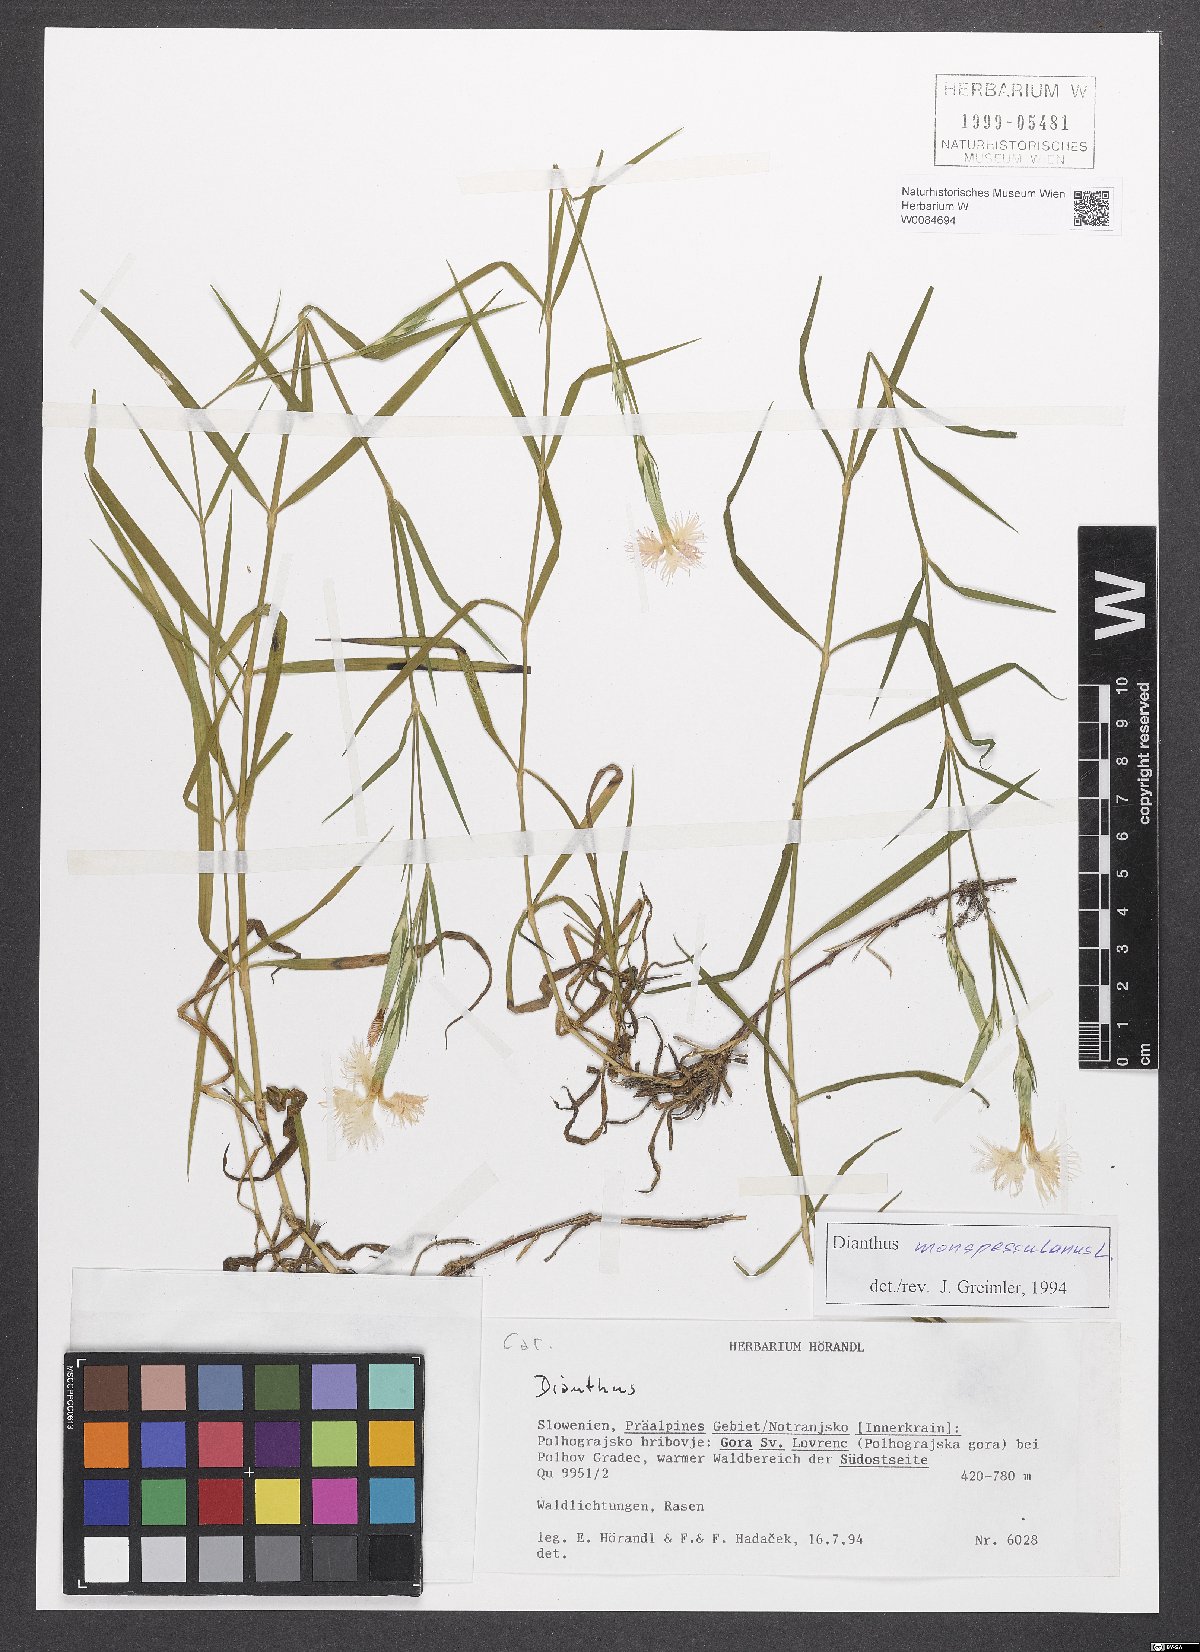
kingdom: Plantae
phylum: Tracheophyta
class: Magnoliopsida
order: Caryophyllales
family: Caryophyllaceae
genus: Dianthus
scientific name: Dianthus hyssopifolius
